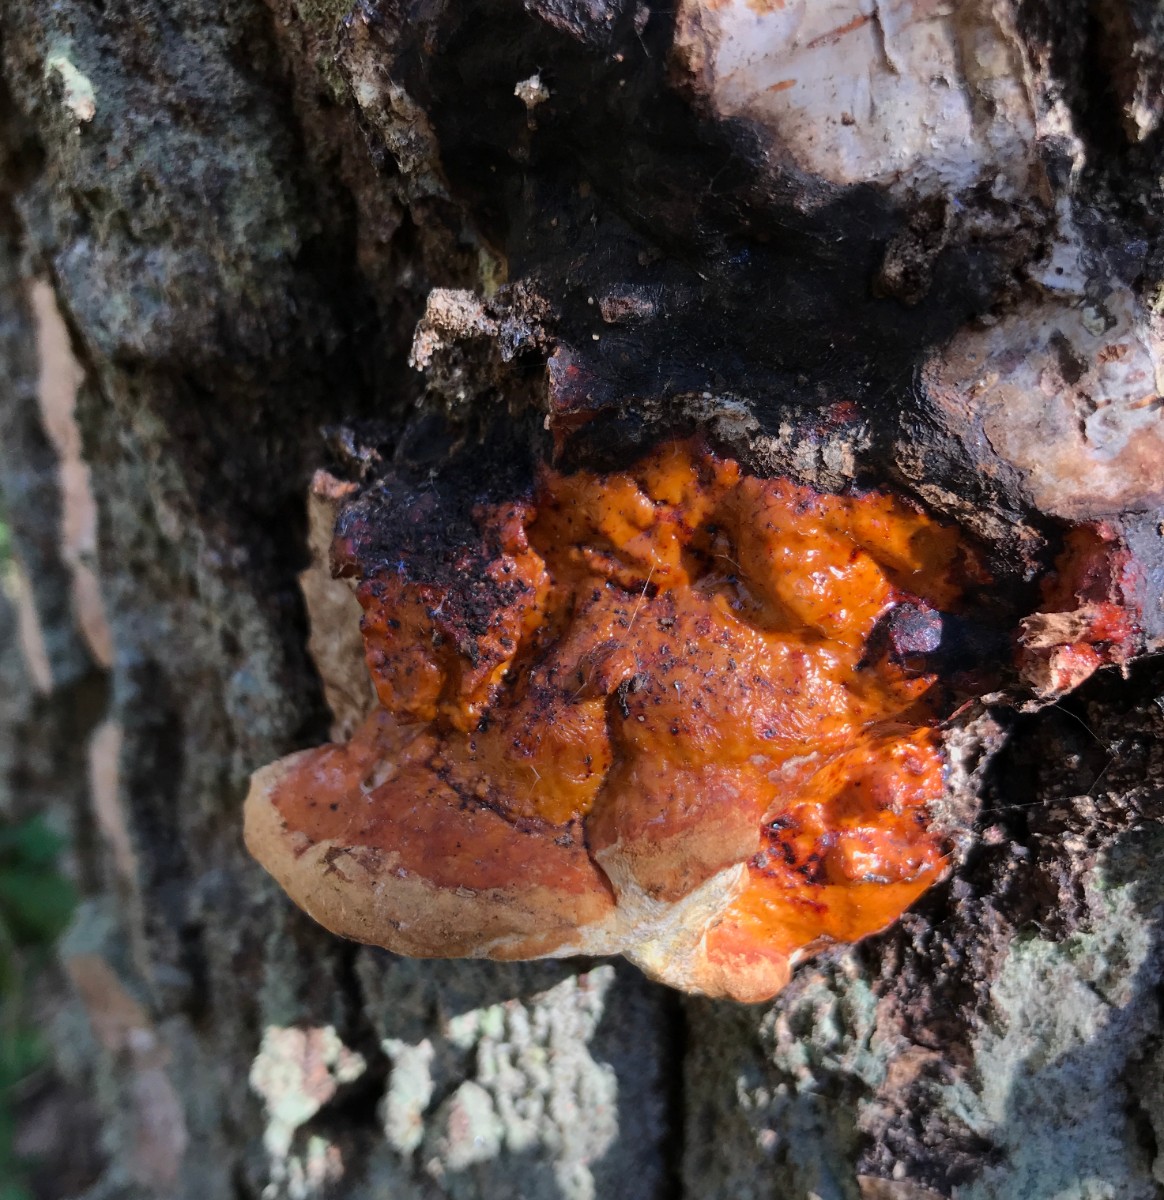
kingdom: Fungi
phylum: Basidiomycota
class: Agaricomycetes
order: Polyporales
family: Fomitopsidaceae
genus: Fomitopsis
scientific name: Fomitopsis pinicola
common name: randbæltet hovporesvamp
